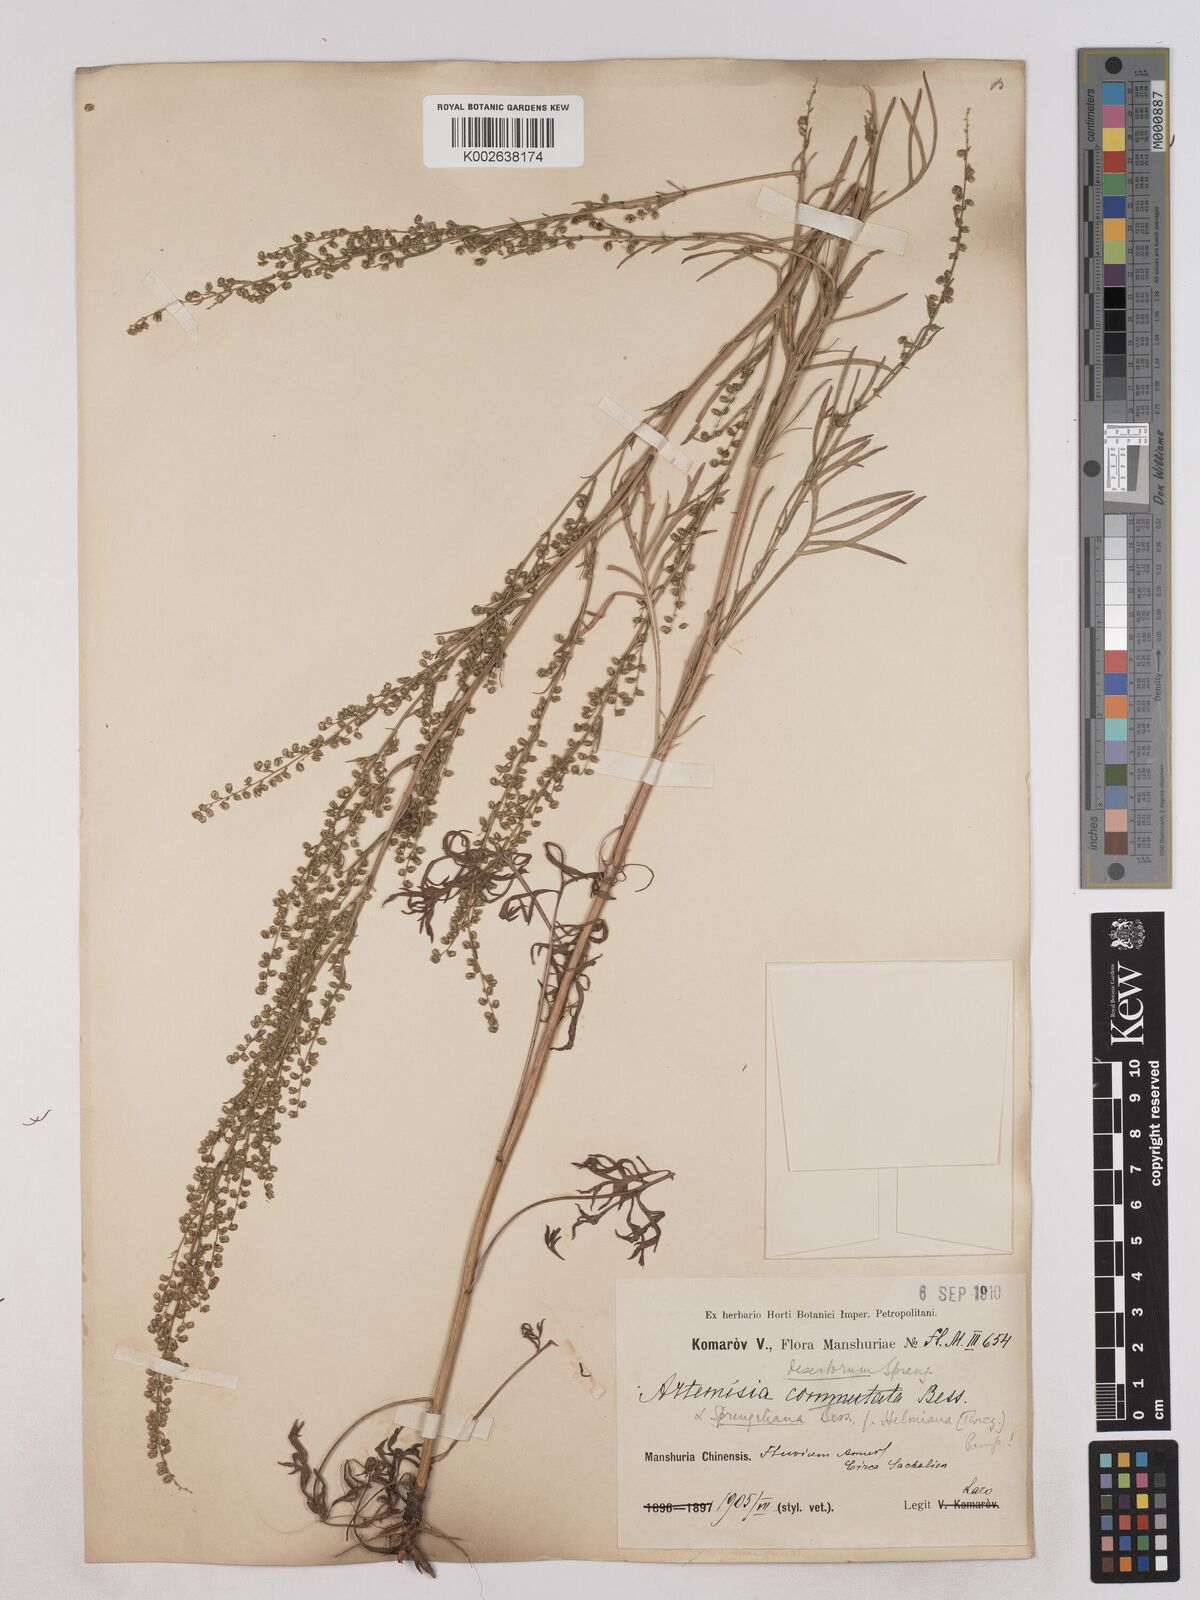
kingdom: Plantae
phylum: Tracheophyta
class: Magnoliopsida
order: Asterales
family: Asteraceae
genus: Artemisia
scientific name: Artemisia macilenta
